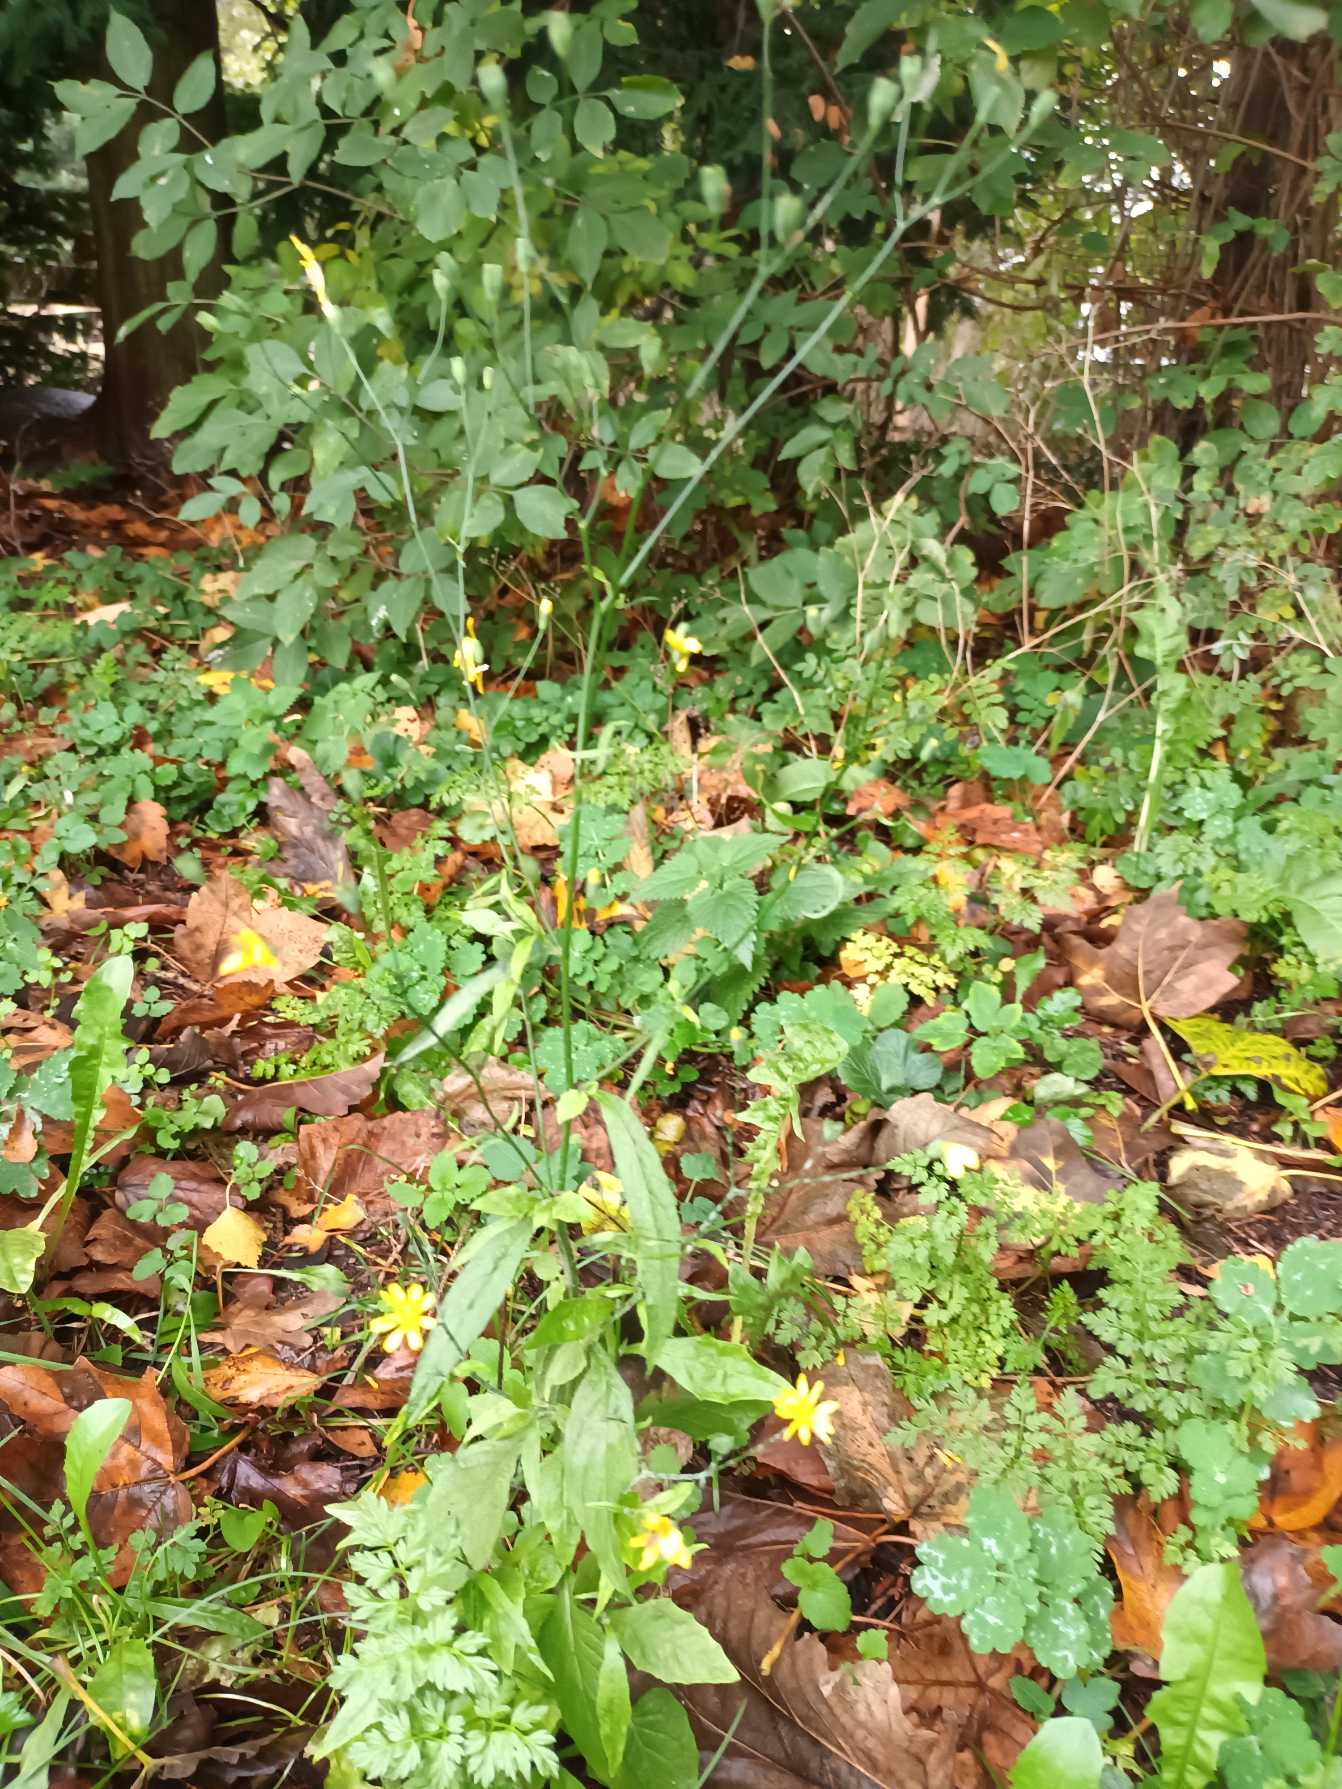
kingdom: Plantae
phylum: Tracheophyta
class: Magnoliopsida
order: Asterales
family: Asteraceae
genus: Lapsana
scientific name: Lapsana communis
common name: Haremad
